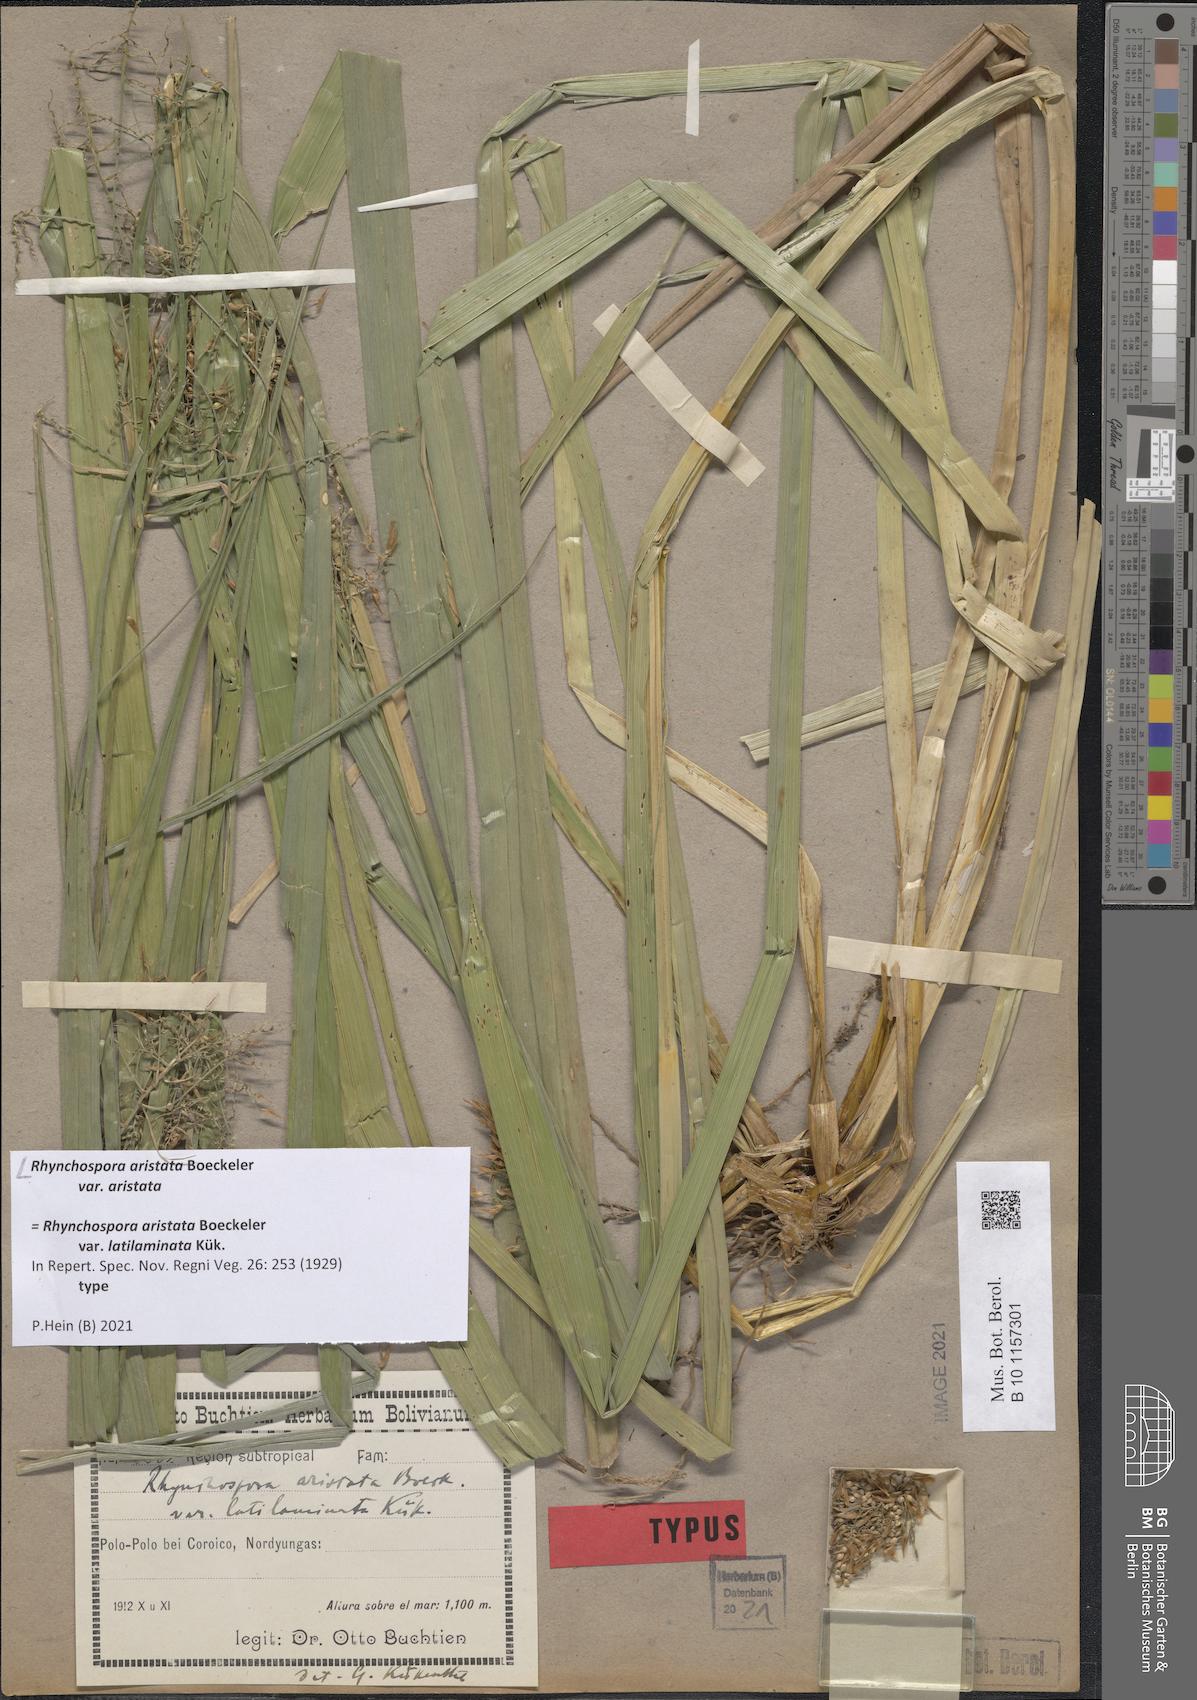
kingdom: Plantae
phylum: Tracheophyta
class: Liliopsida
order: Poales
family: Cyperaceae
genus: Rhynchospora
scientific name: Rhynchospora aristata
